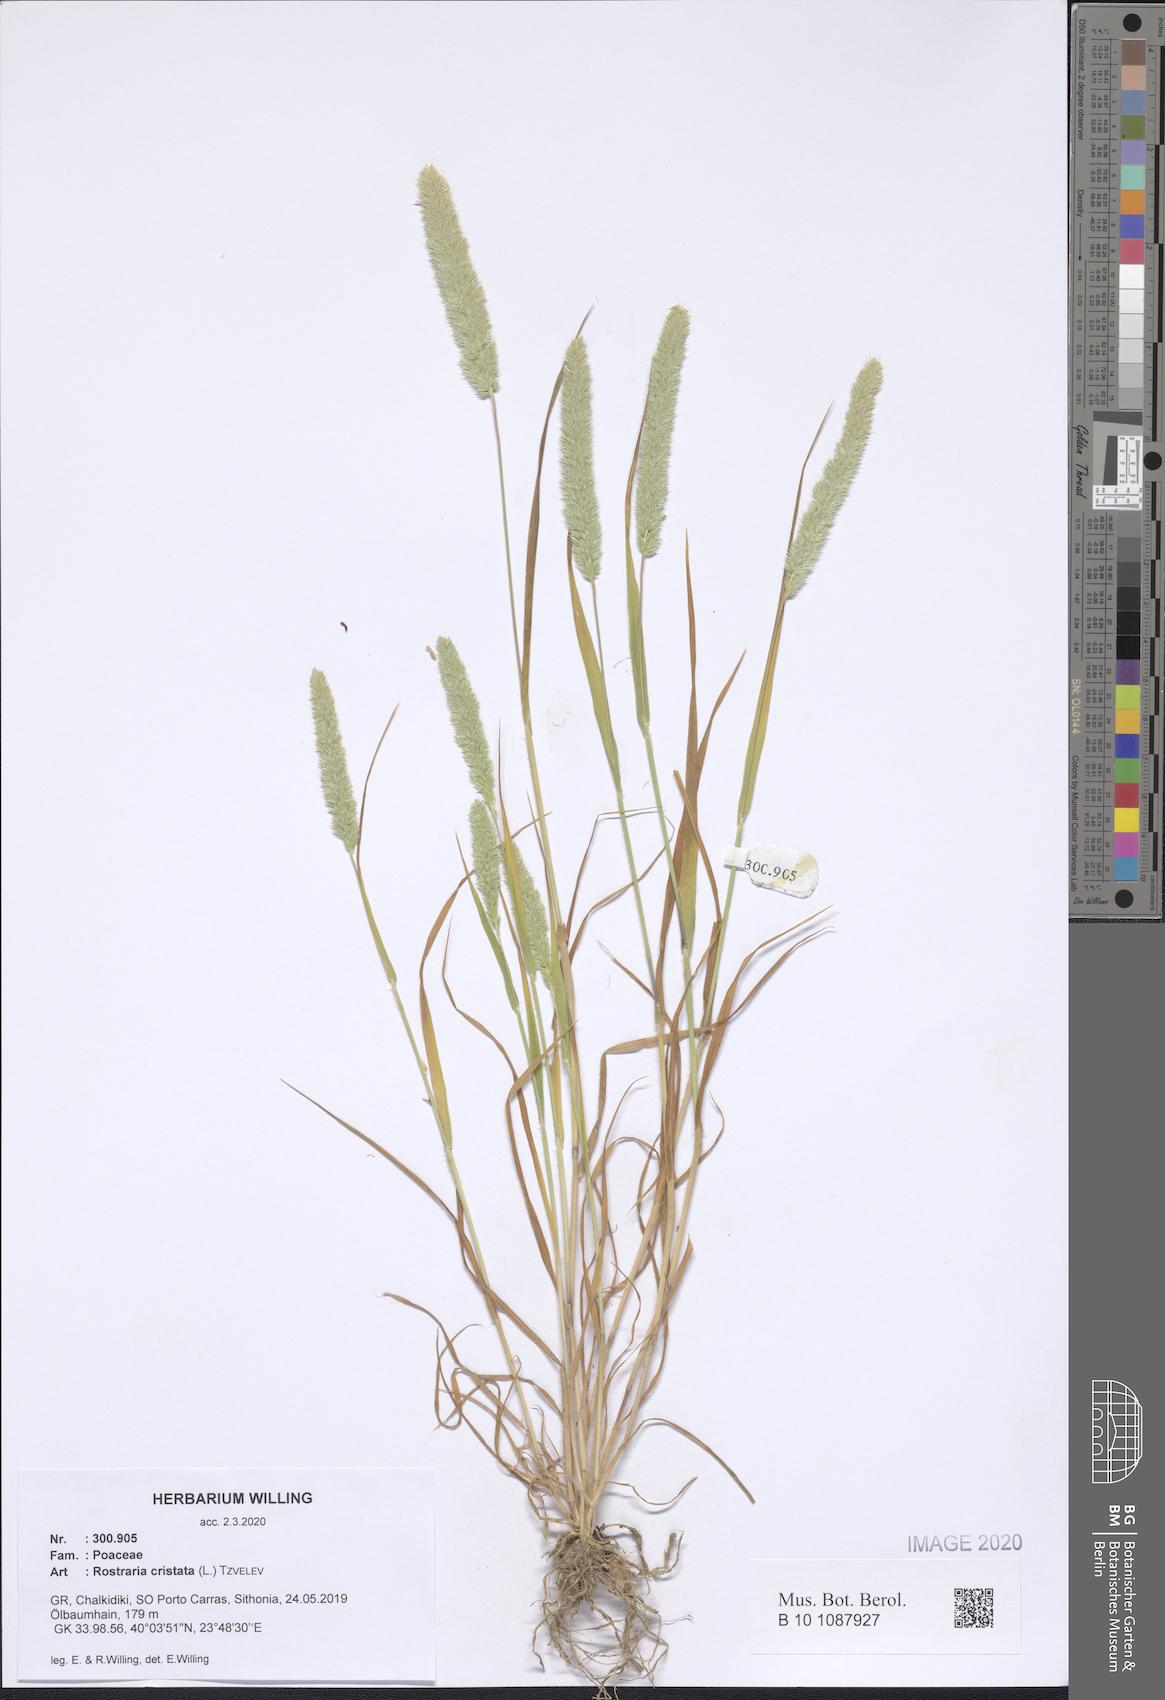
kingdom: Plantae
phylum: Tracheophyta
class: Liliopsida
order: Poales
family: Poaceae
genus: Rostraria
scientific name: Rostraria cristata
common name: Mediterranean hair-grass
